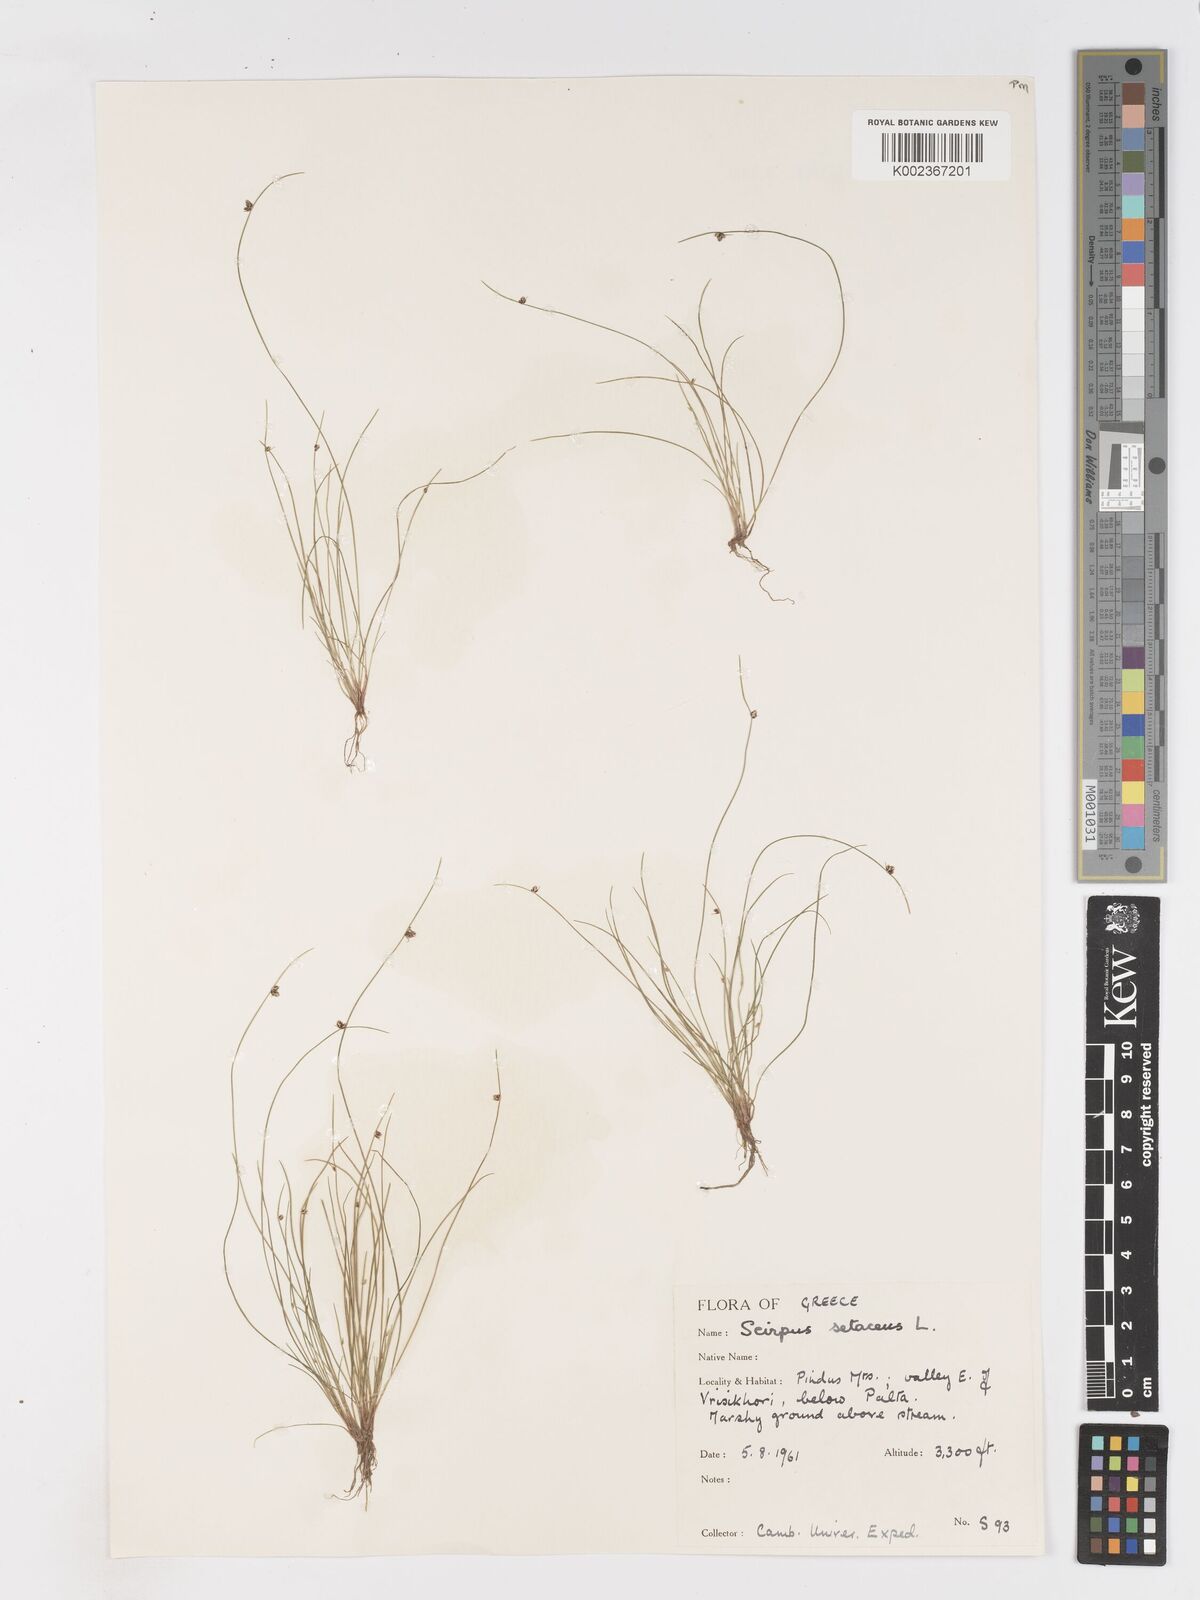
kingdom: Plantae
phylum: Tracheophyta
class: Liliopsida
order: Poales
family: Cyperaceae
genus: Isolepis
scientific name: Isolepis setacea
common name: Bristle club-rush
